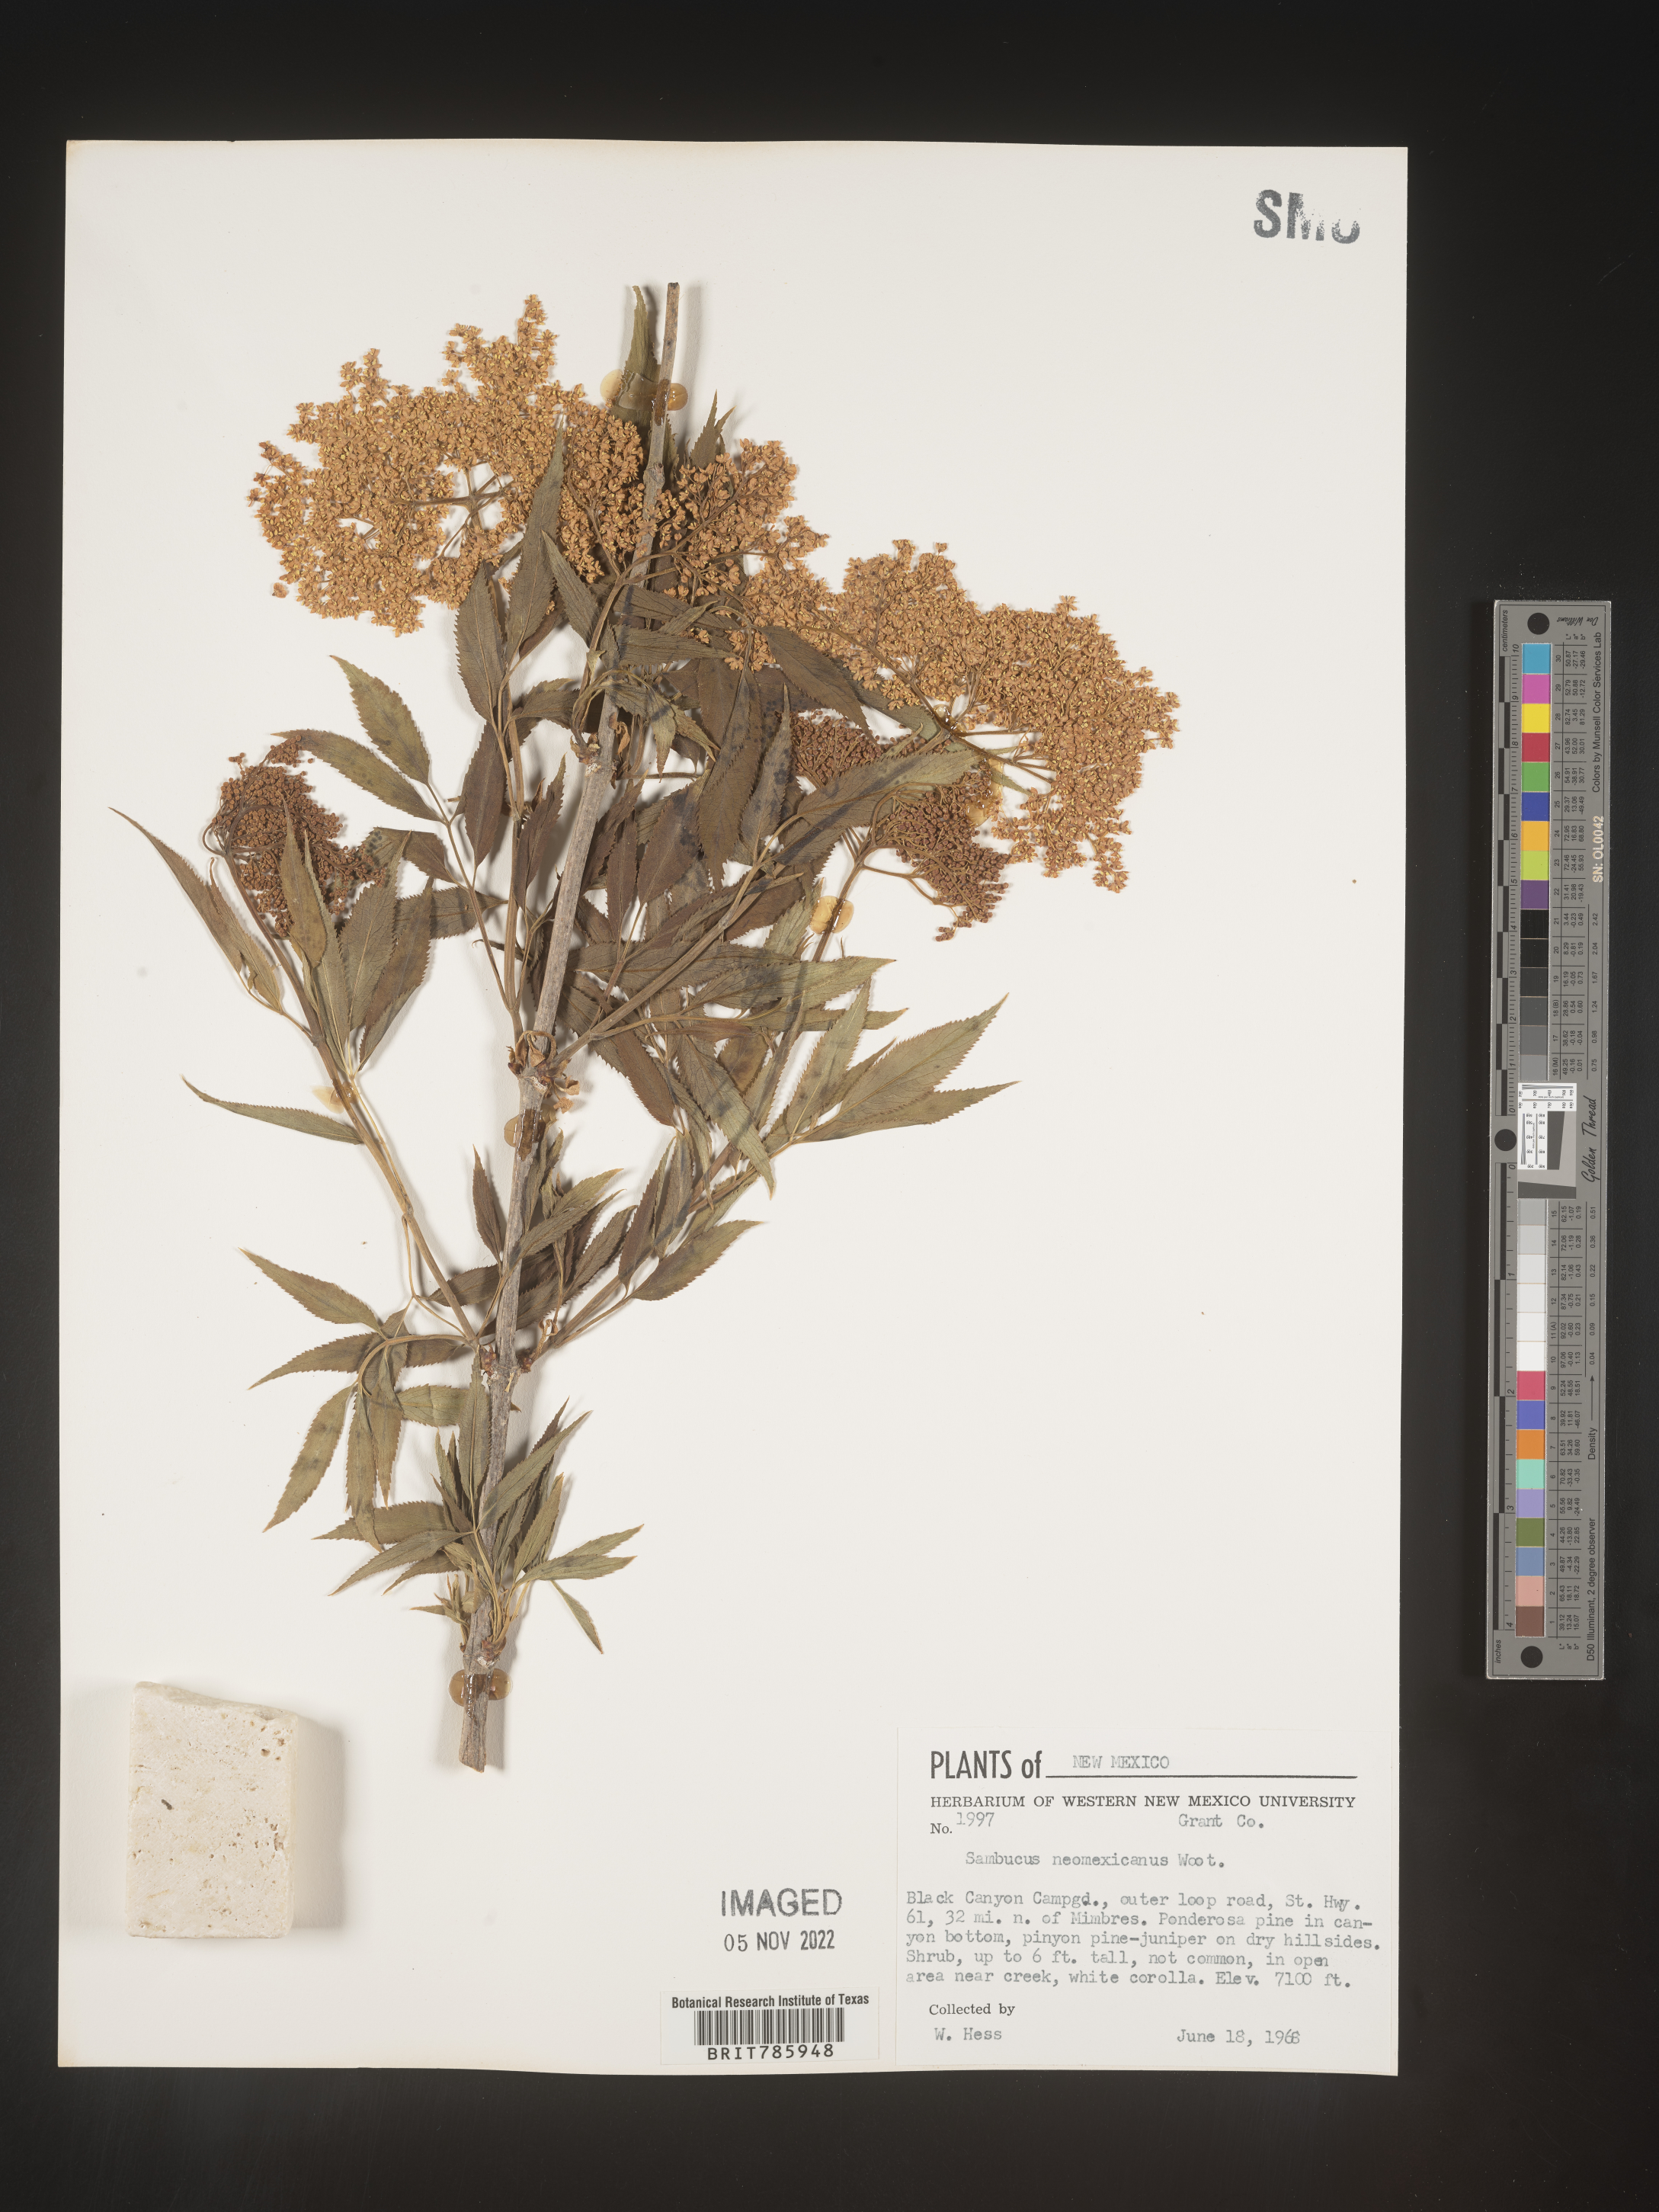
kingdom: Plantae
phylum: Tracheophyta
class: Magnoliopsida
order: Dipsacales
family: Viburnaceae
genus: Sambucus
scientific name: Sambucus
